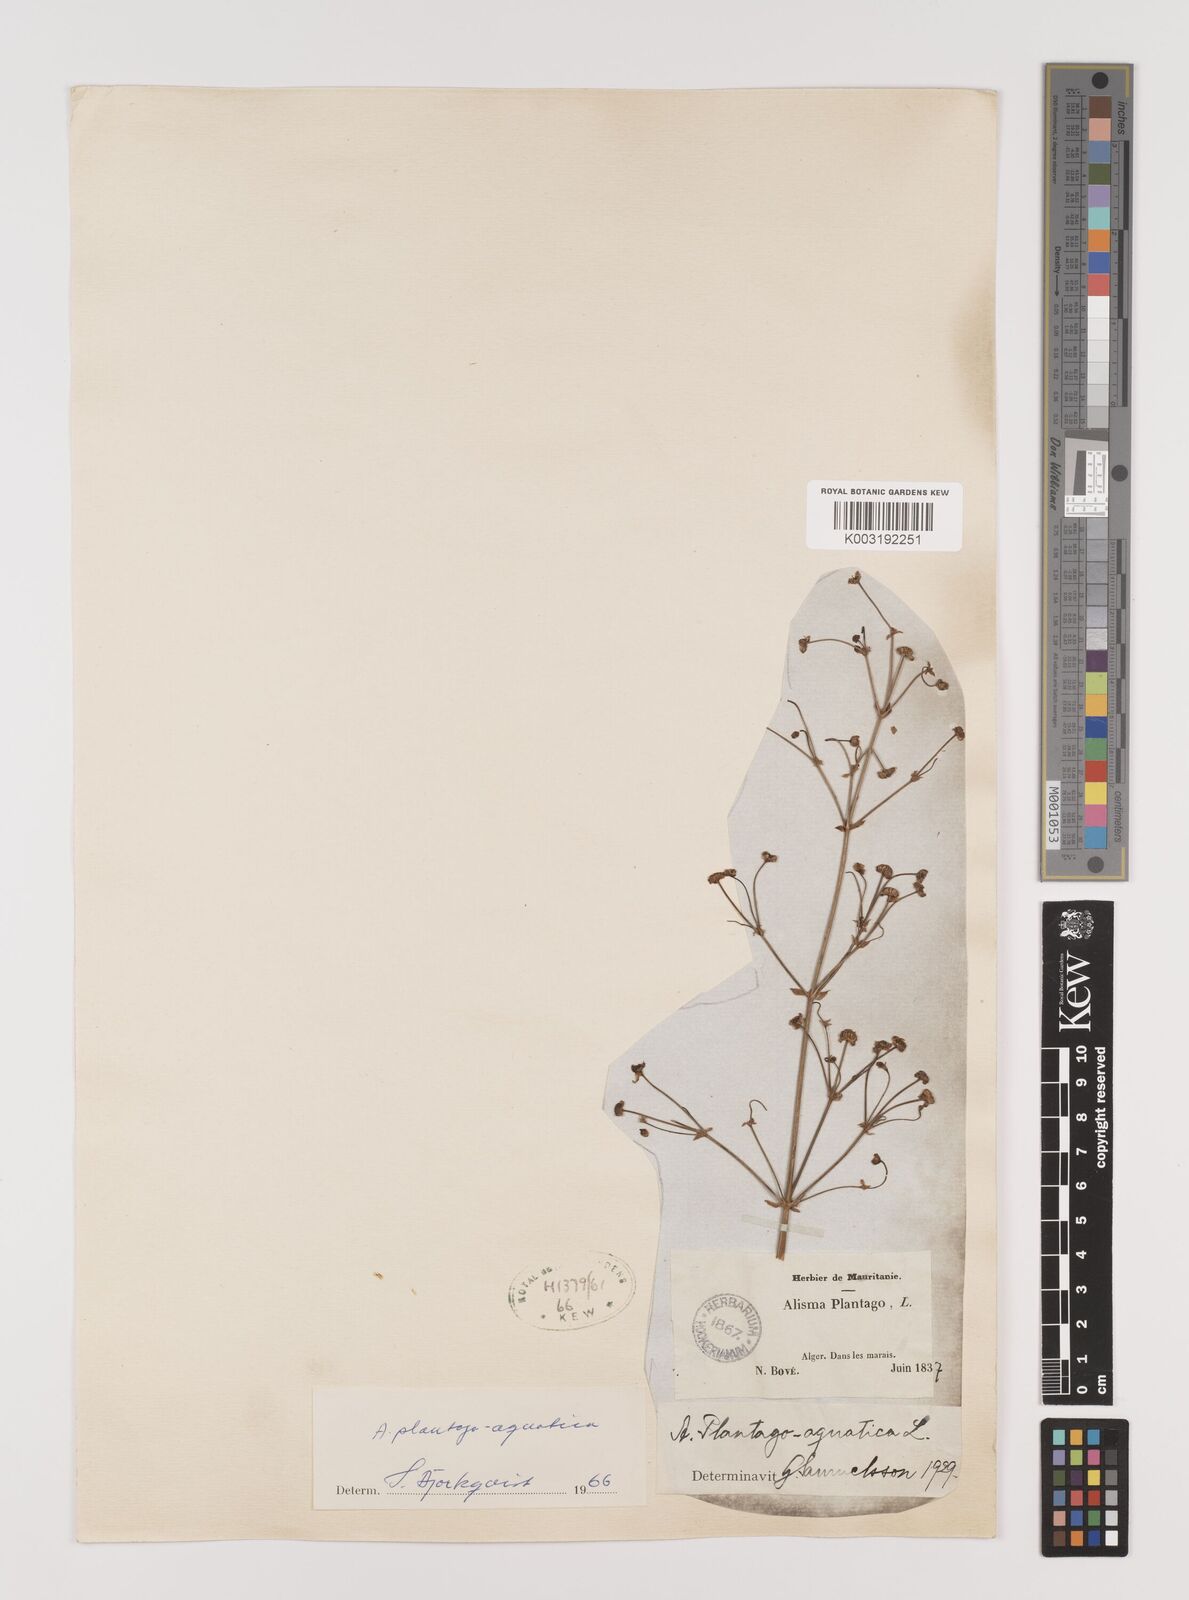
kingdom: Plantae
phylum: Tracheophyta
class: Liliopsida
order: Alismatales
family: Alismataceae
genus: Alisma
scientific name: Alisma plantago-aquatica
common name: Water-plantain
